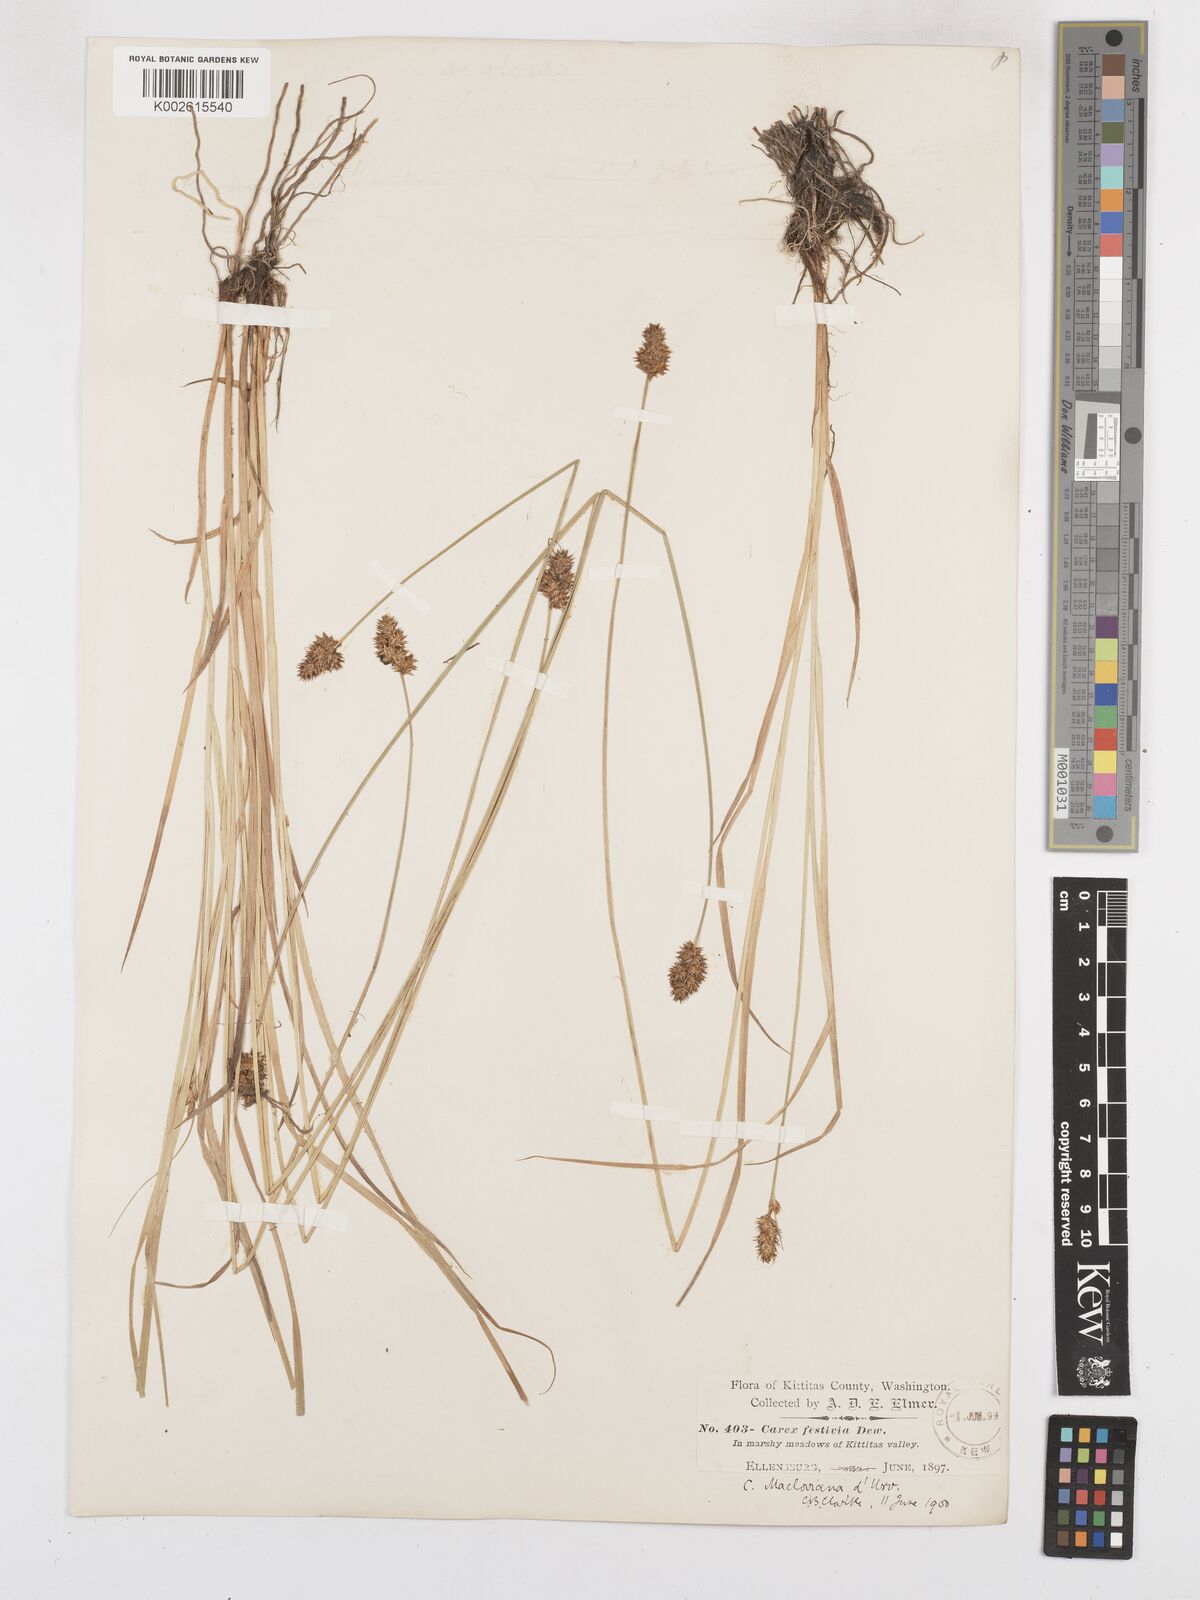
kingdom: Plantae
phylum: Tracheophyta
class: Liliopsida
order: Poales
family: Cyperaceae
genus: Carex
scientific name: Carex subfusca
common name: Brown sedge
